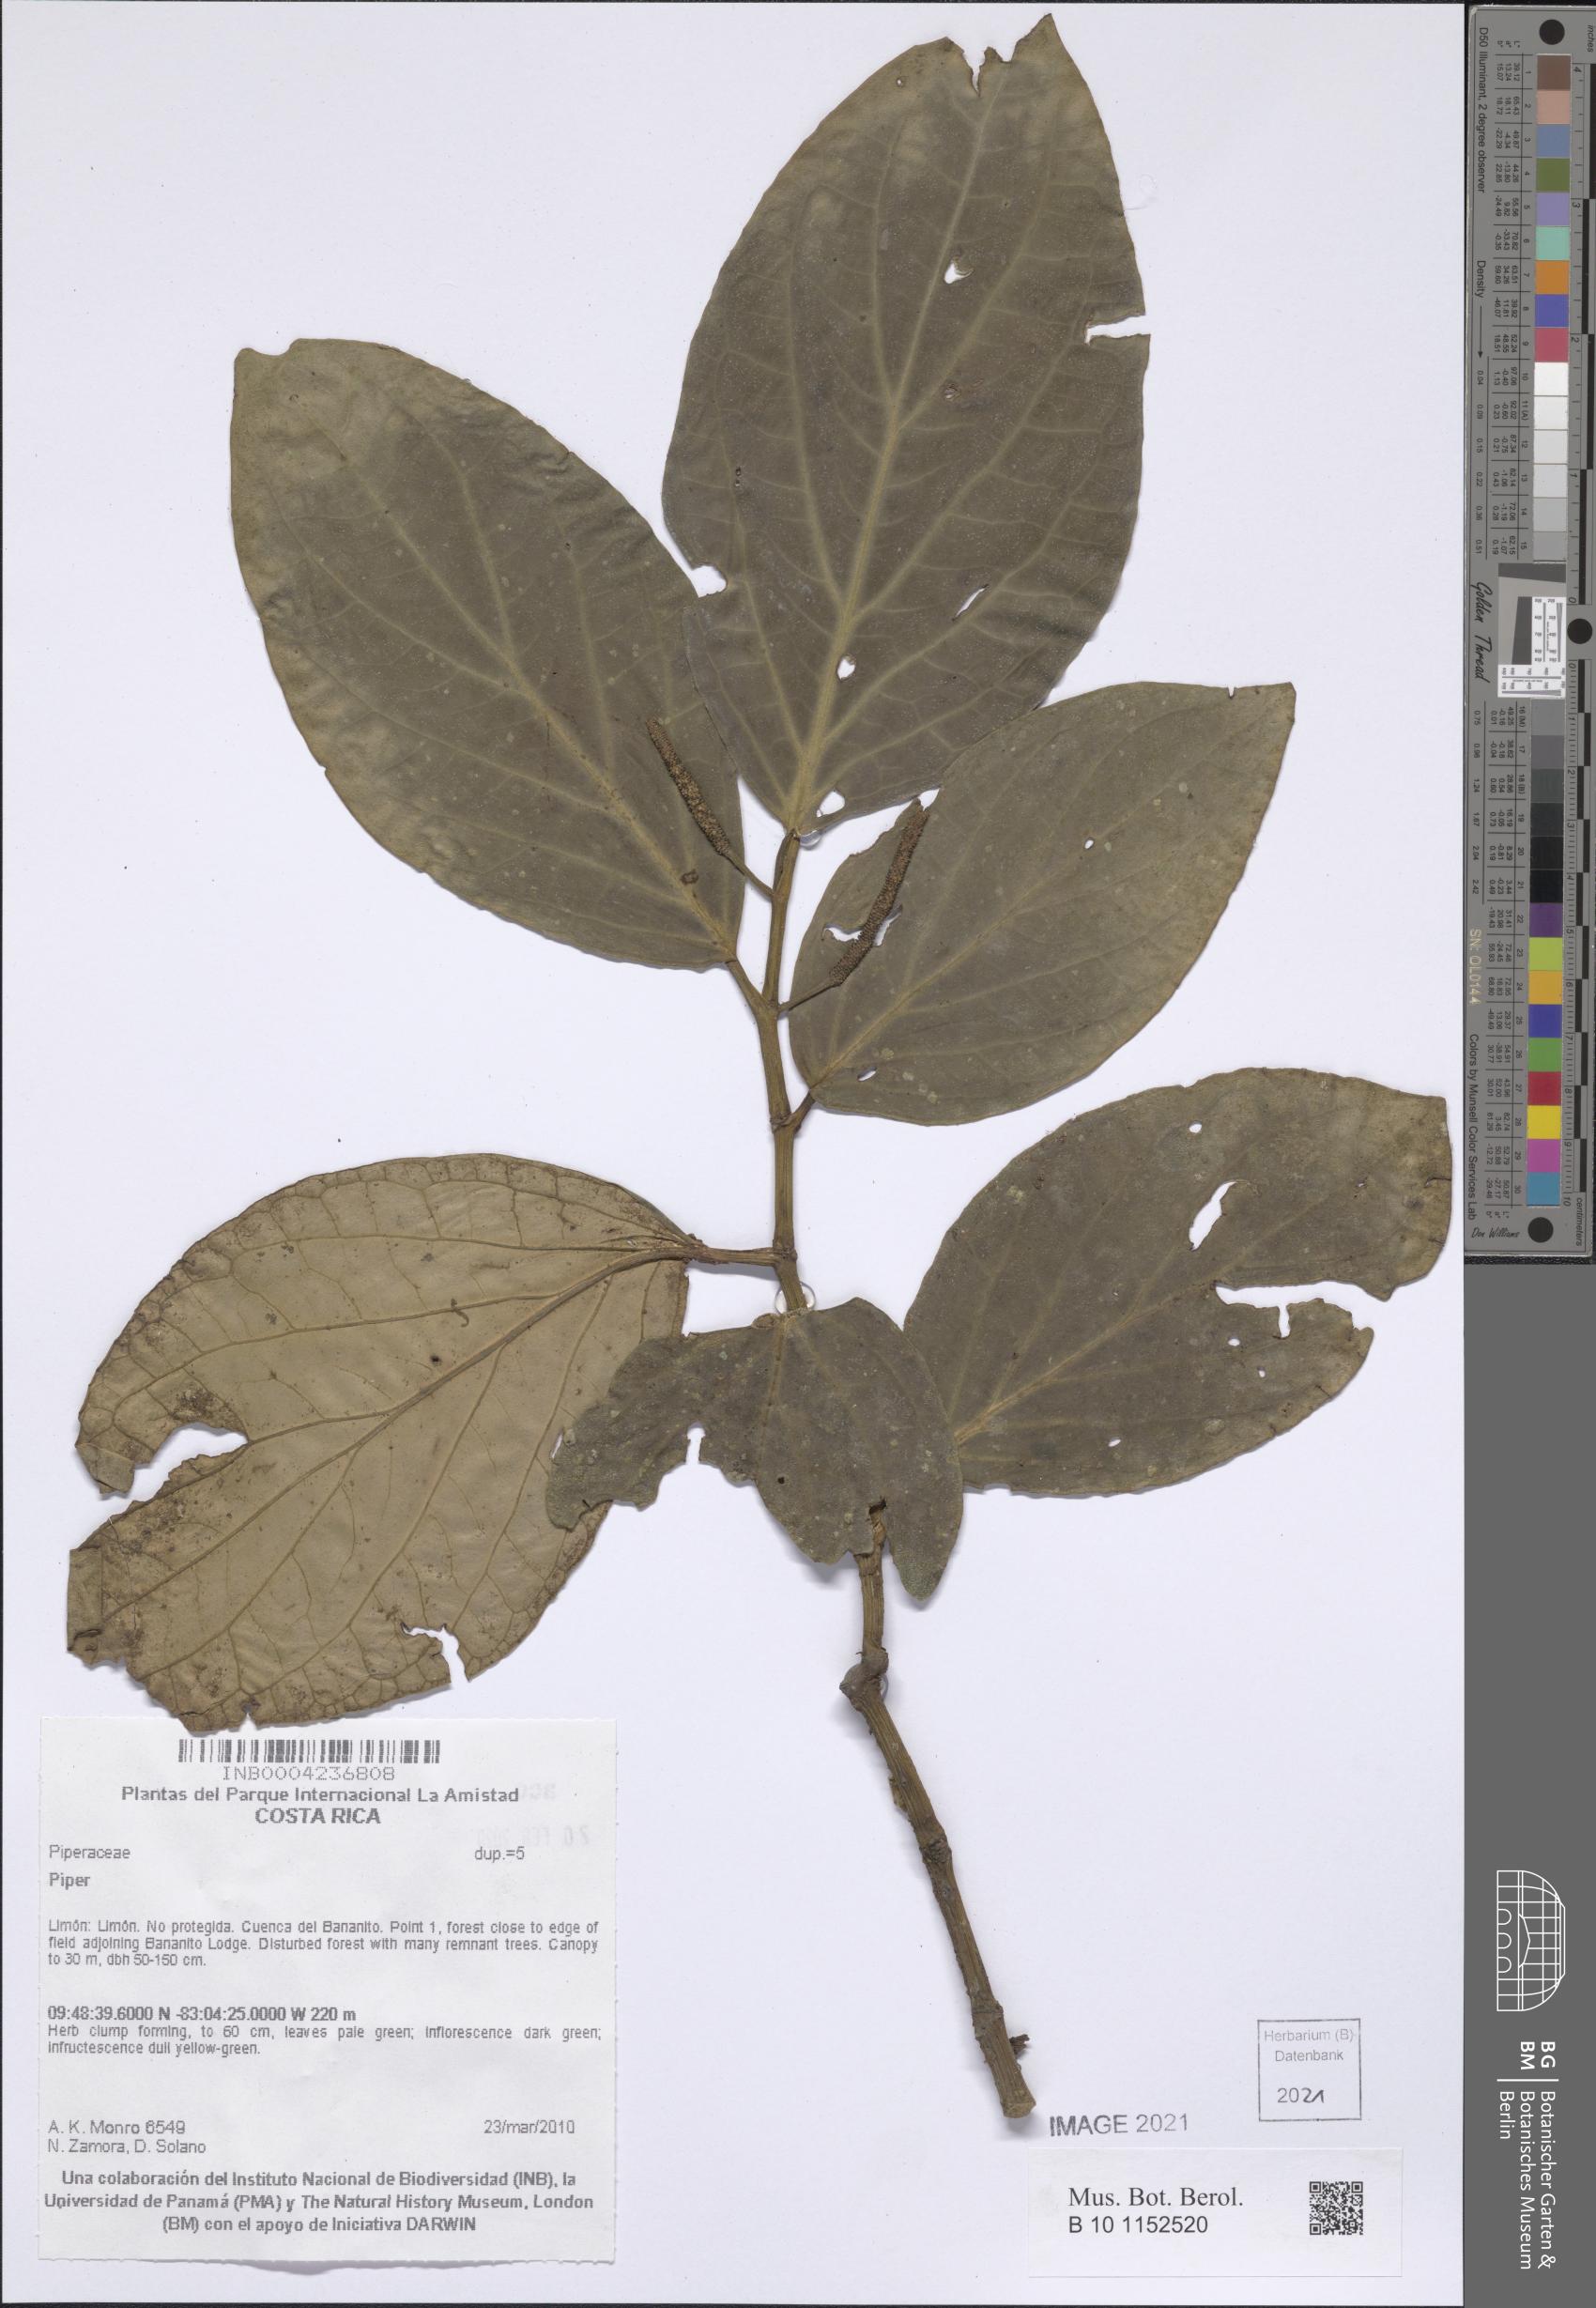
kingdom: Plantae
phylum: Tracheophyta
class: Magnoliopsida
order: Piperales
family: Piperaceae
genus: Piper
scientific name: Piper
